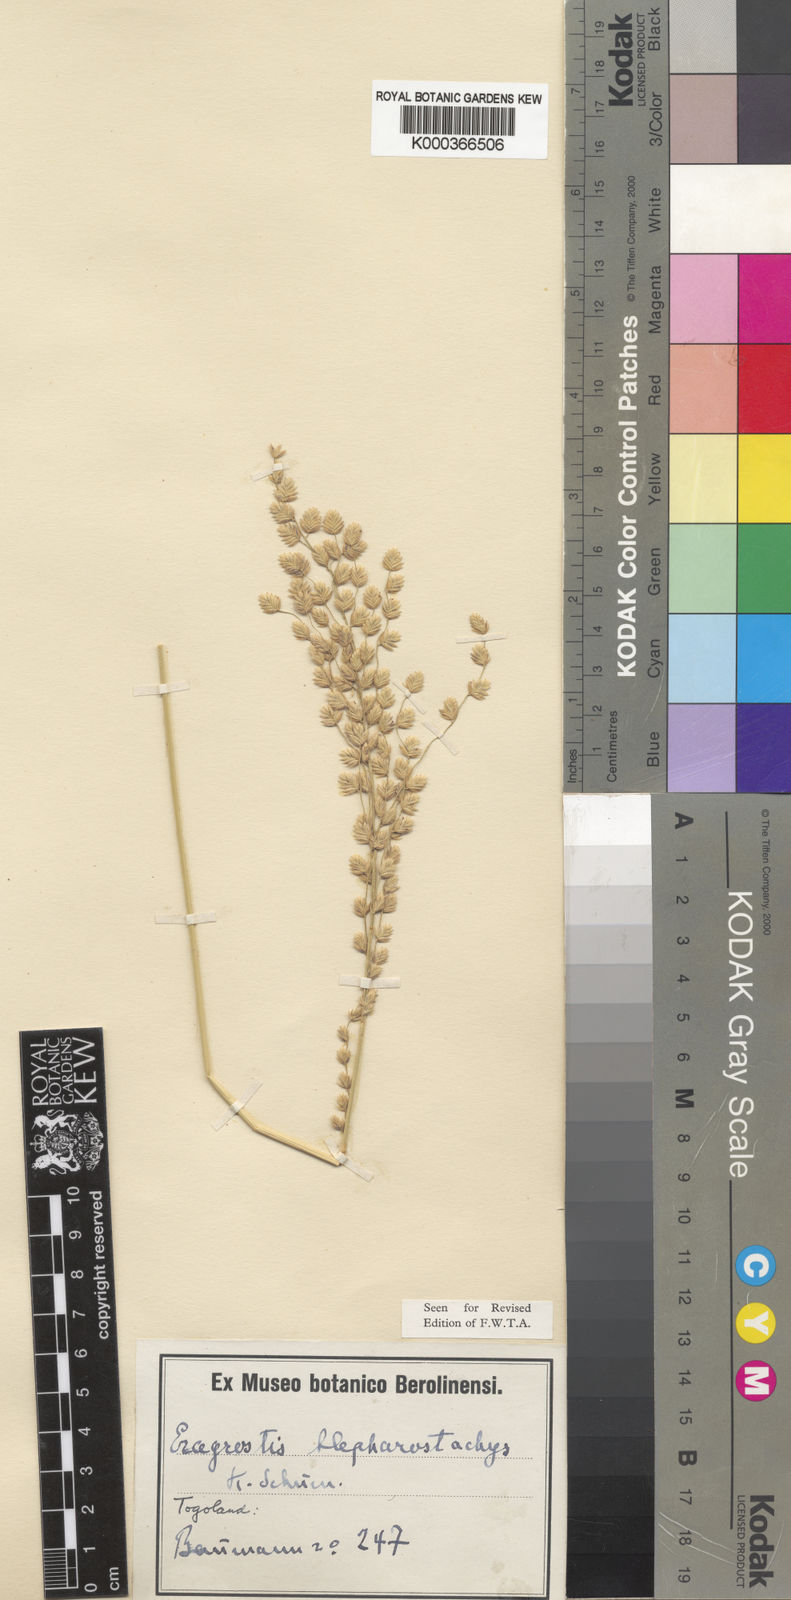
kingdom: Plantae
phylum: Tracheophyta
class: Liliopsida
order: Poales
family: Poaceae
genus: Eragrostis
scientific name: Eragrostis blepharostachya
